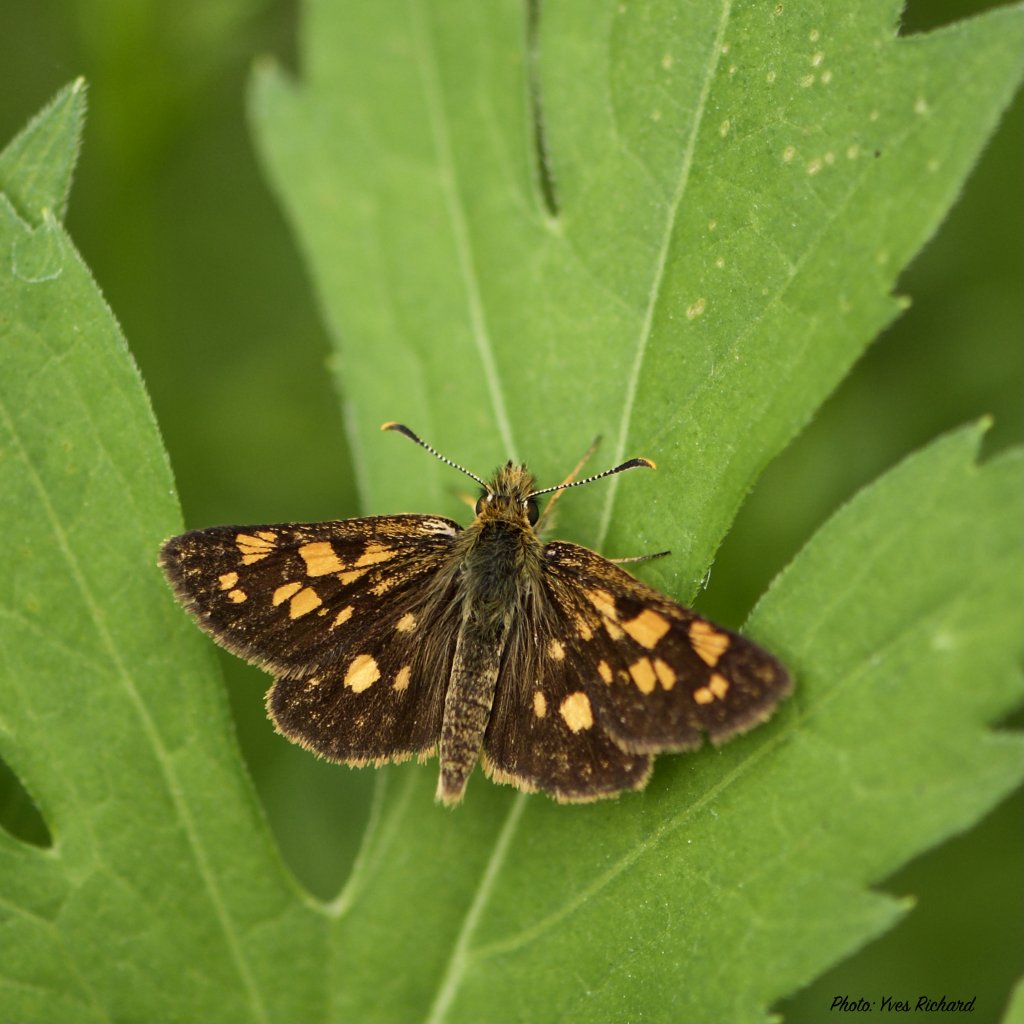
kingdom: Animalia
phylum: Arthropoda
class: Insecta
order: Lepidoptera
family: Hesperiidae
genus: Carterocephalus
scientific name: Carterocephalus palaemon
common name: Chequered Skipper
